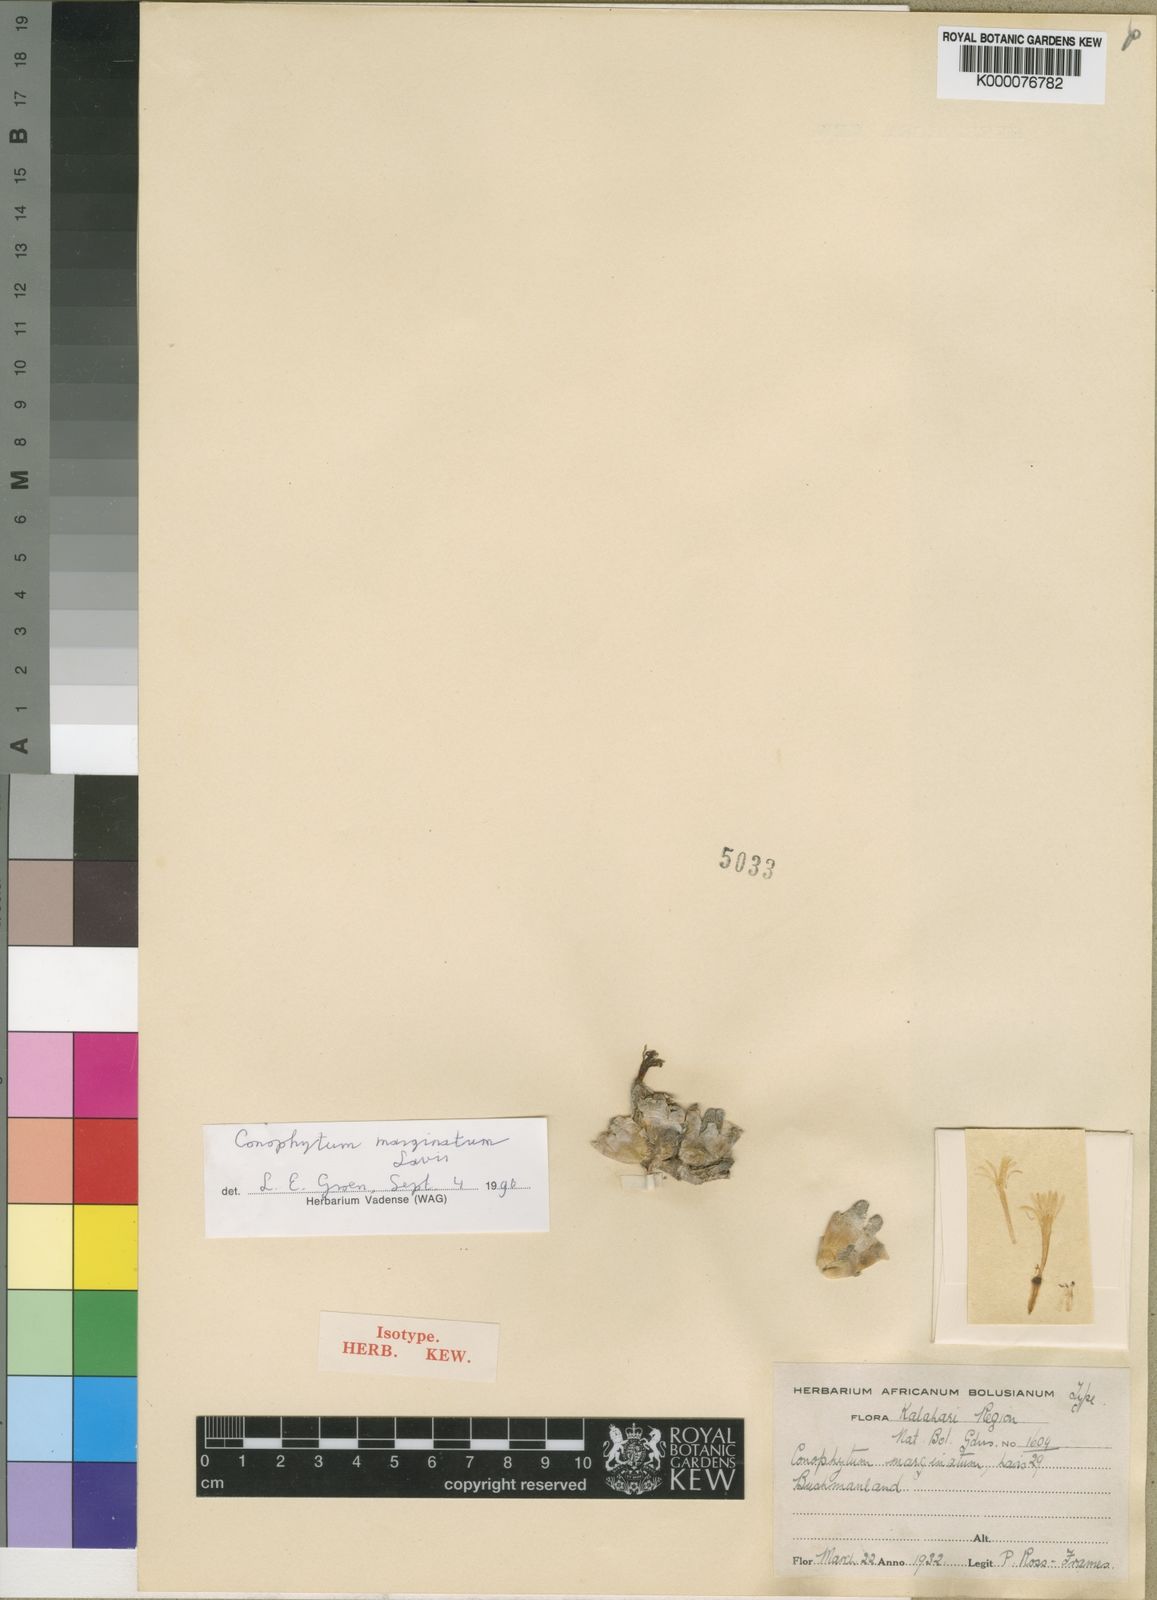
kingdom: Plantae
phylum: Tracheophyta
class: Magnoliopsida
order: Caryophyllales
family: Aizoaceae
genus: Conophytum
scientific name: Conophytum marginatum
